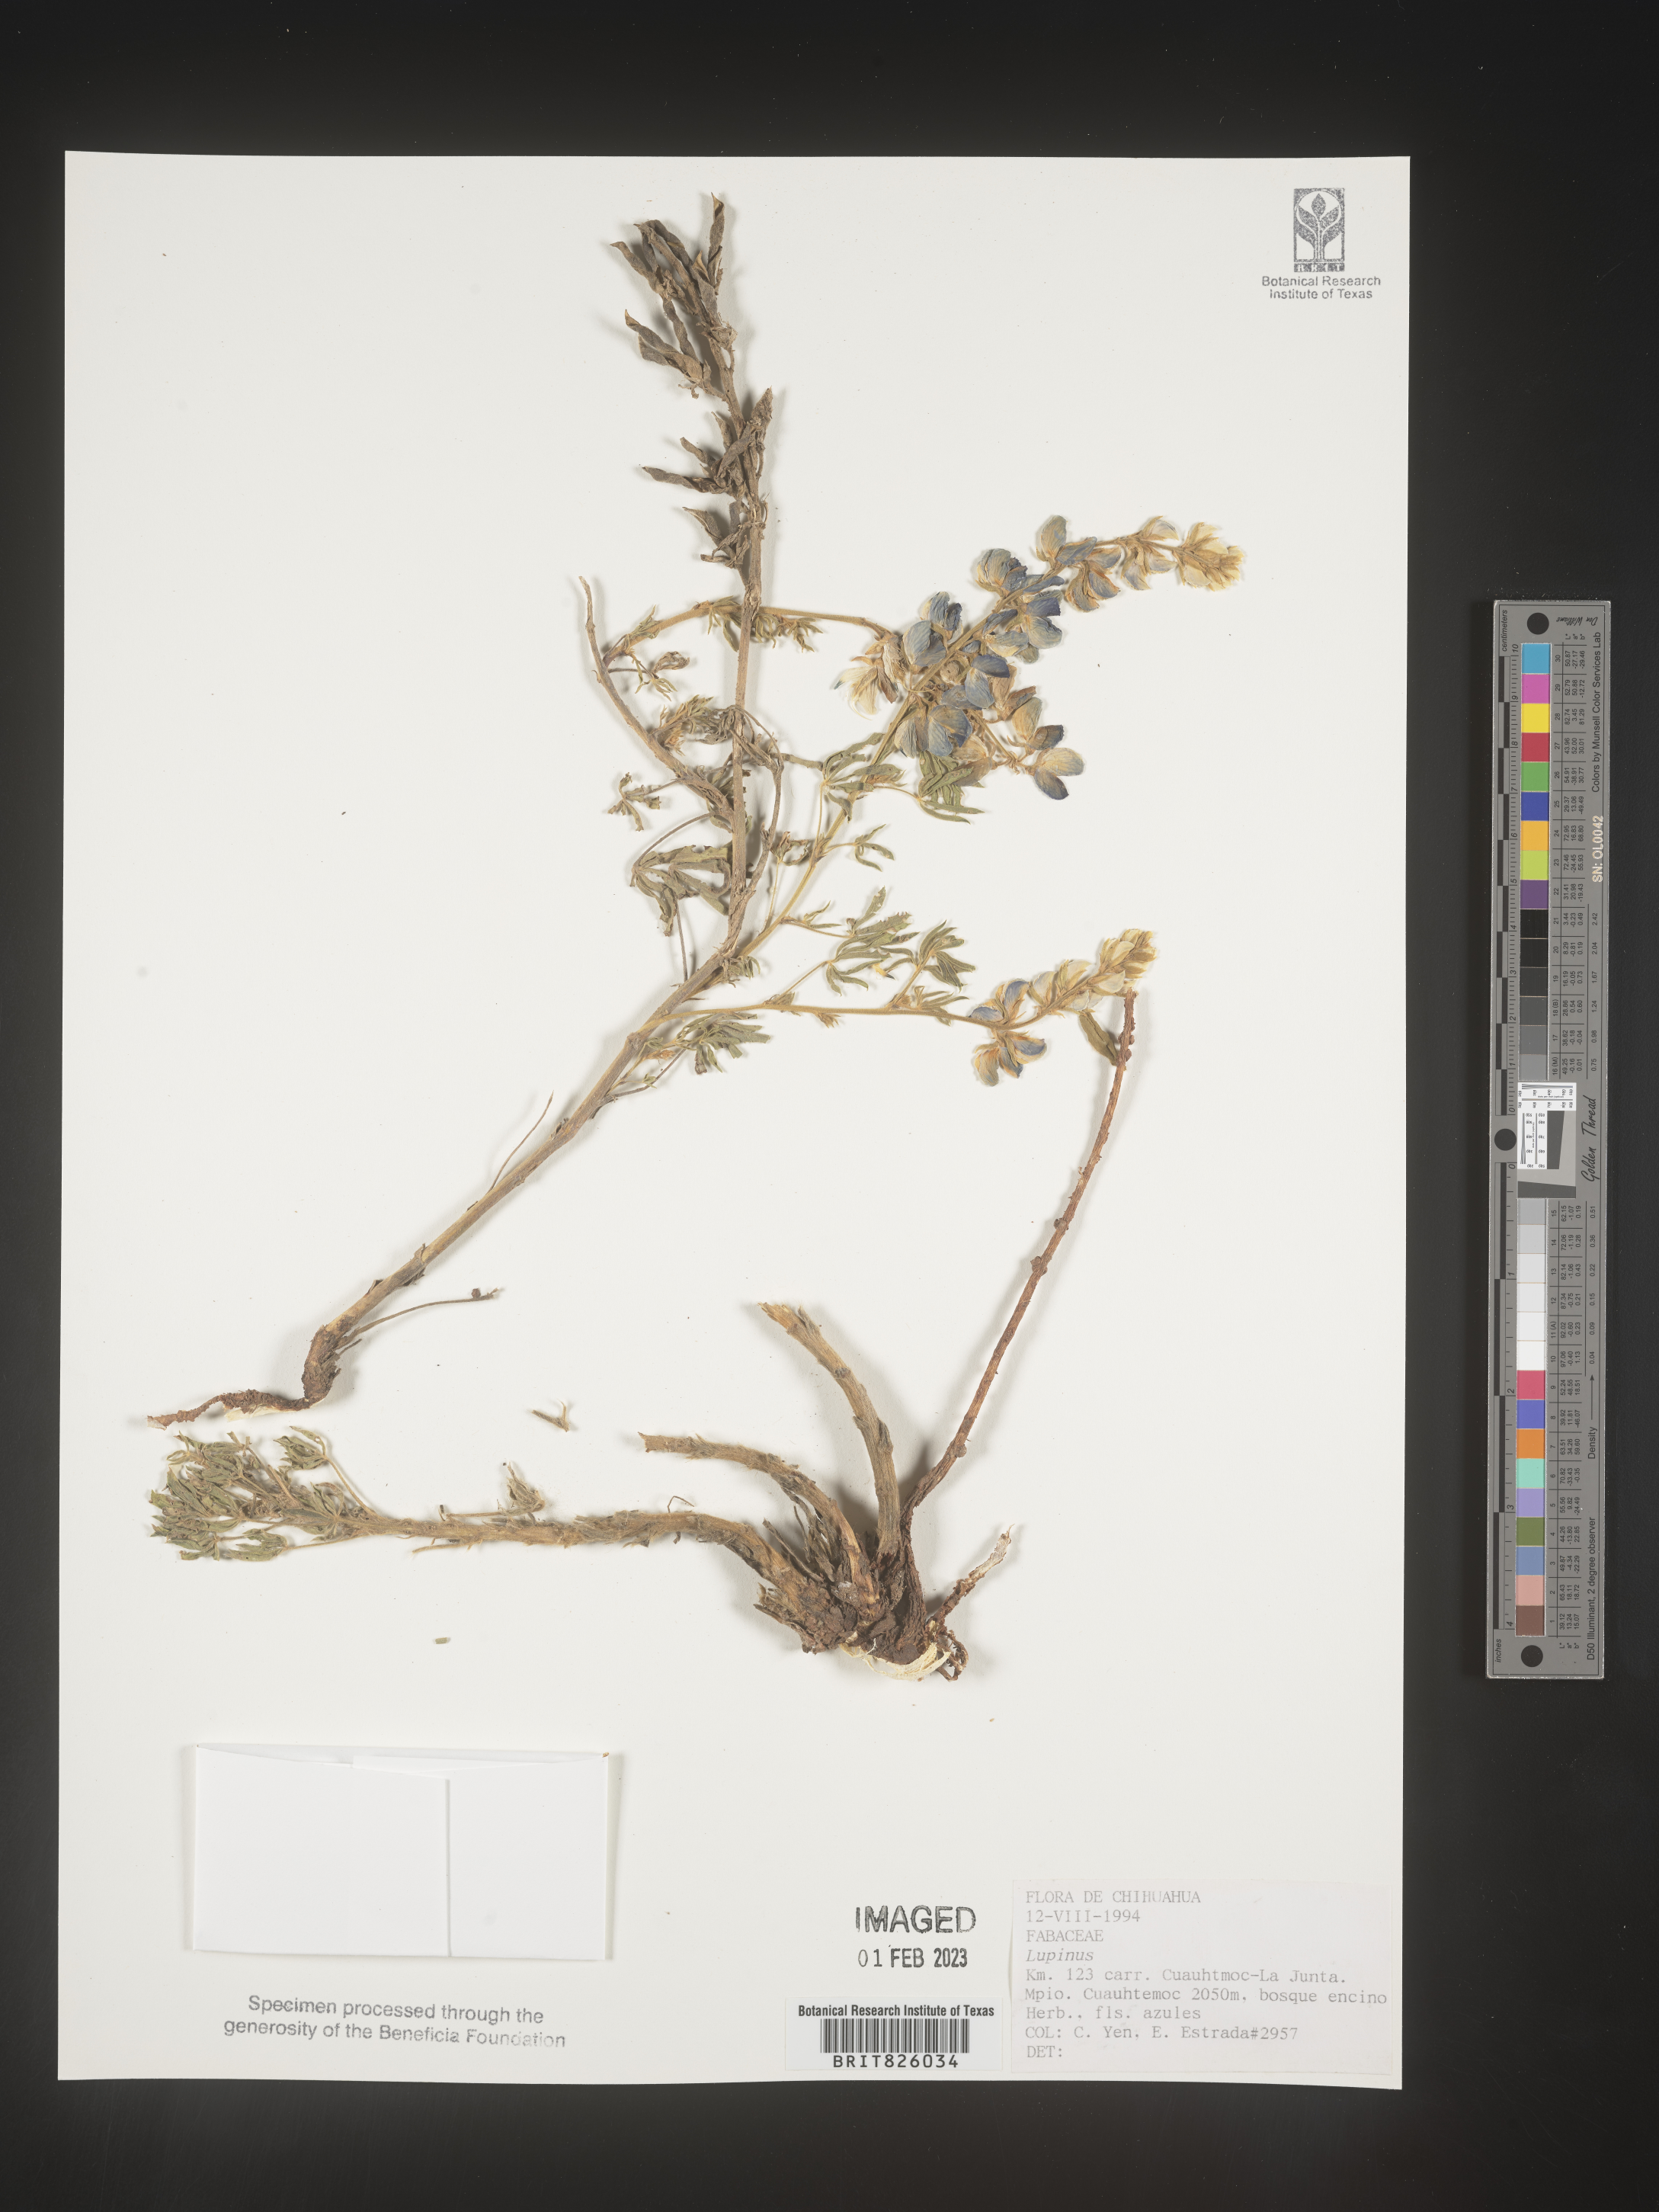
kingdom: Plantae
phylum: Tracheophyta
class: Magnoliopsida
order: Fabales
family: Fabaceae
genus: Lupinus
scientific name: Lupinus
